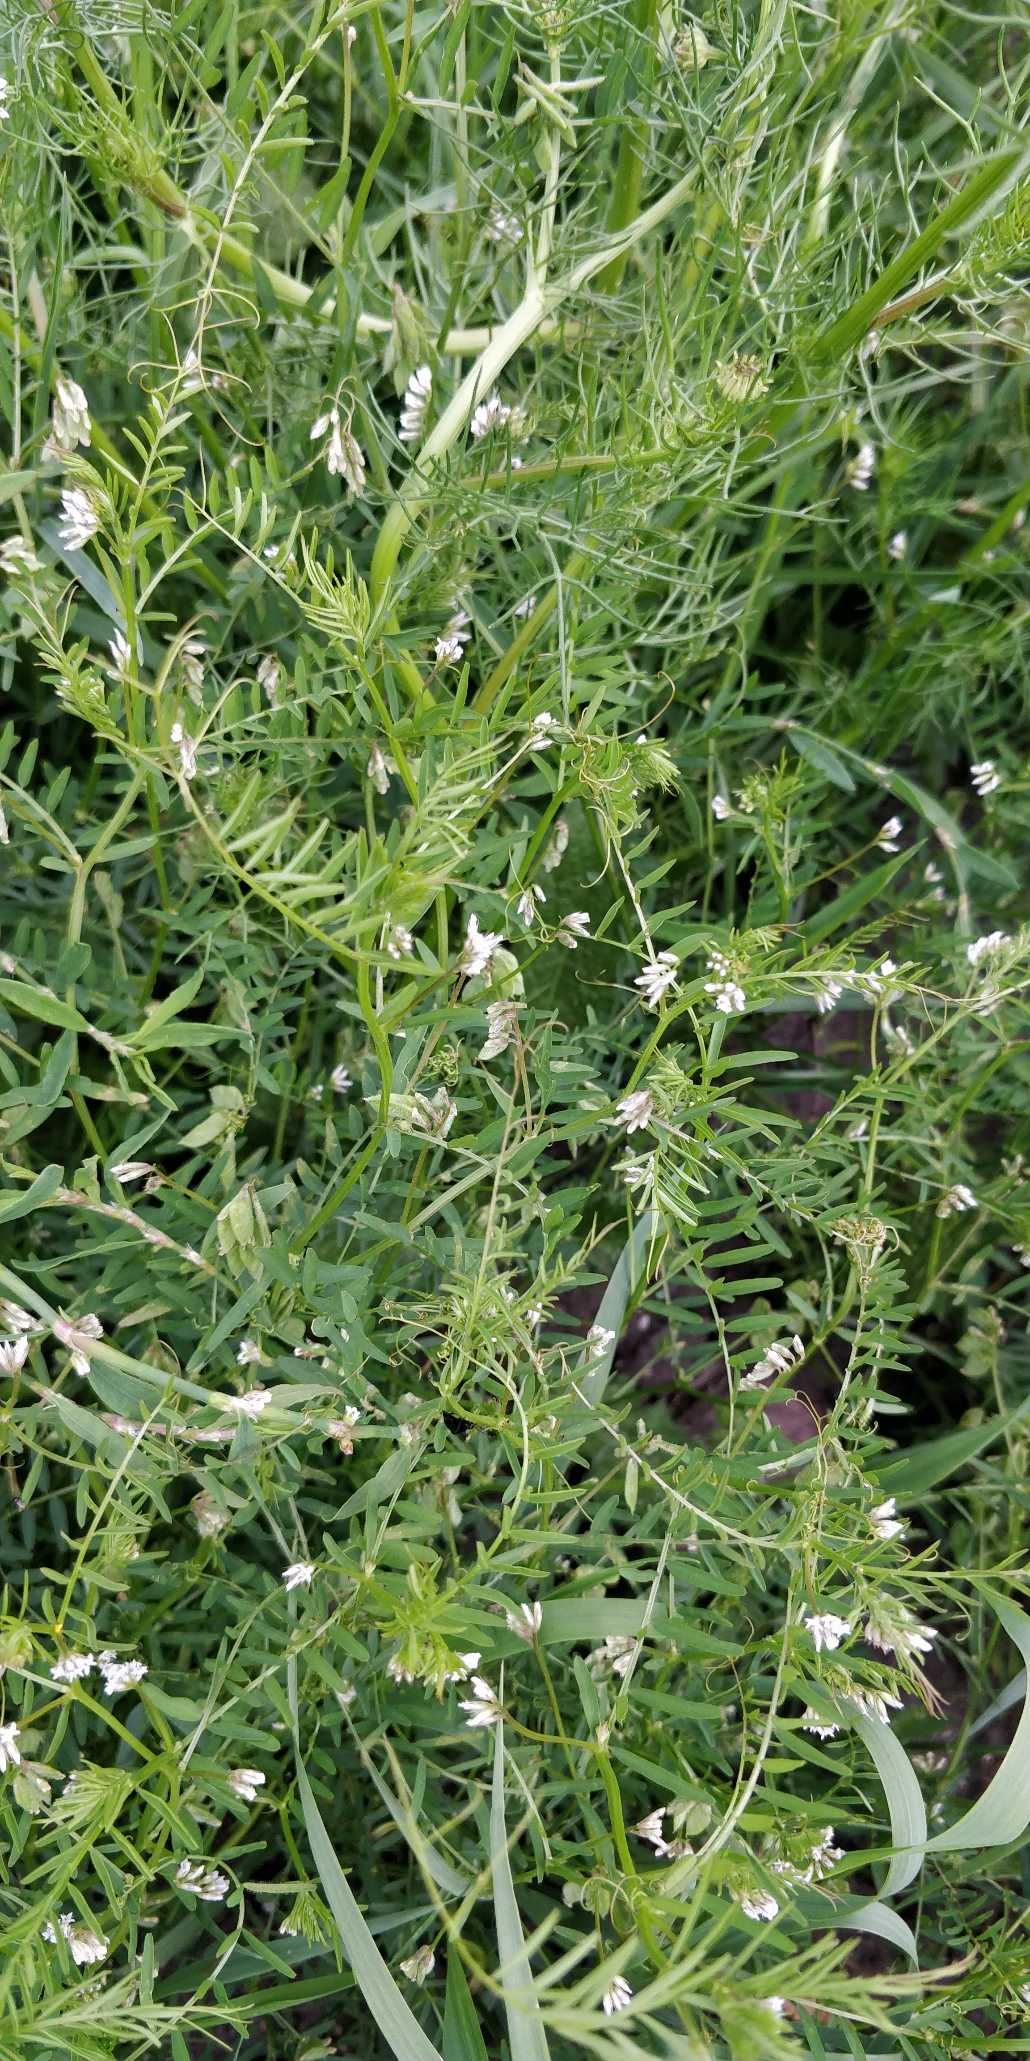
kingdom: Plantae
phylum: Tracheophyta
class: Magnoliopsida
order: Fabales
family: Fabaceae
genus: Vicia
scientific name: Vicia hirsuta
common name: Tofrøet vikke
